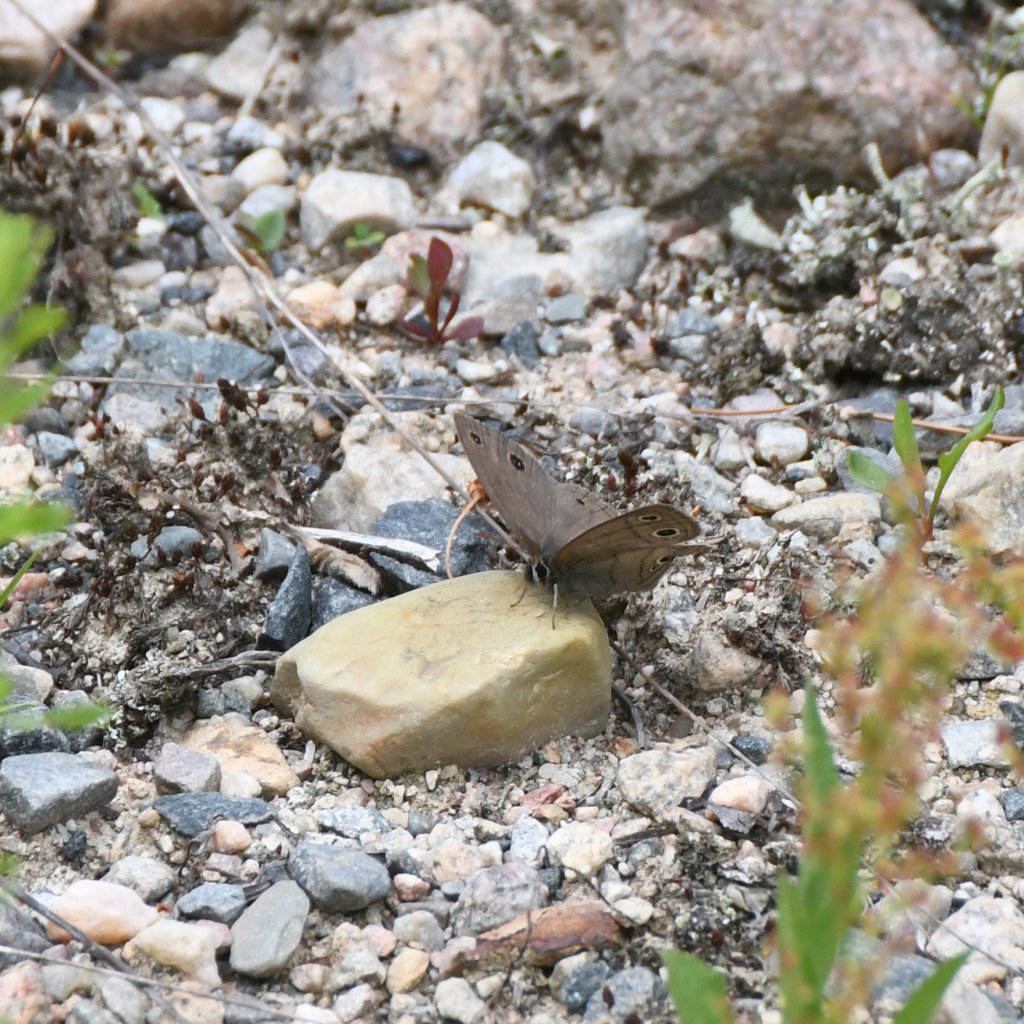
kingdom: Animalia
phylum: Arthropoda
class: Insecta
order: Lepidoptera
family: Nymphalidae
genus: Euptychia
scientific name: Euptychia cymela
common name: Little Wood Satyr
